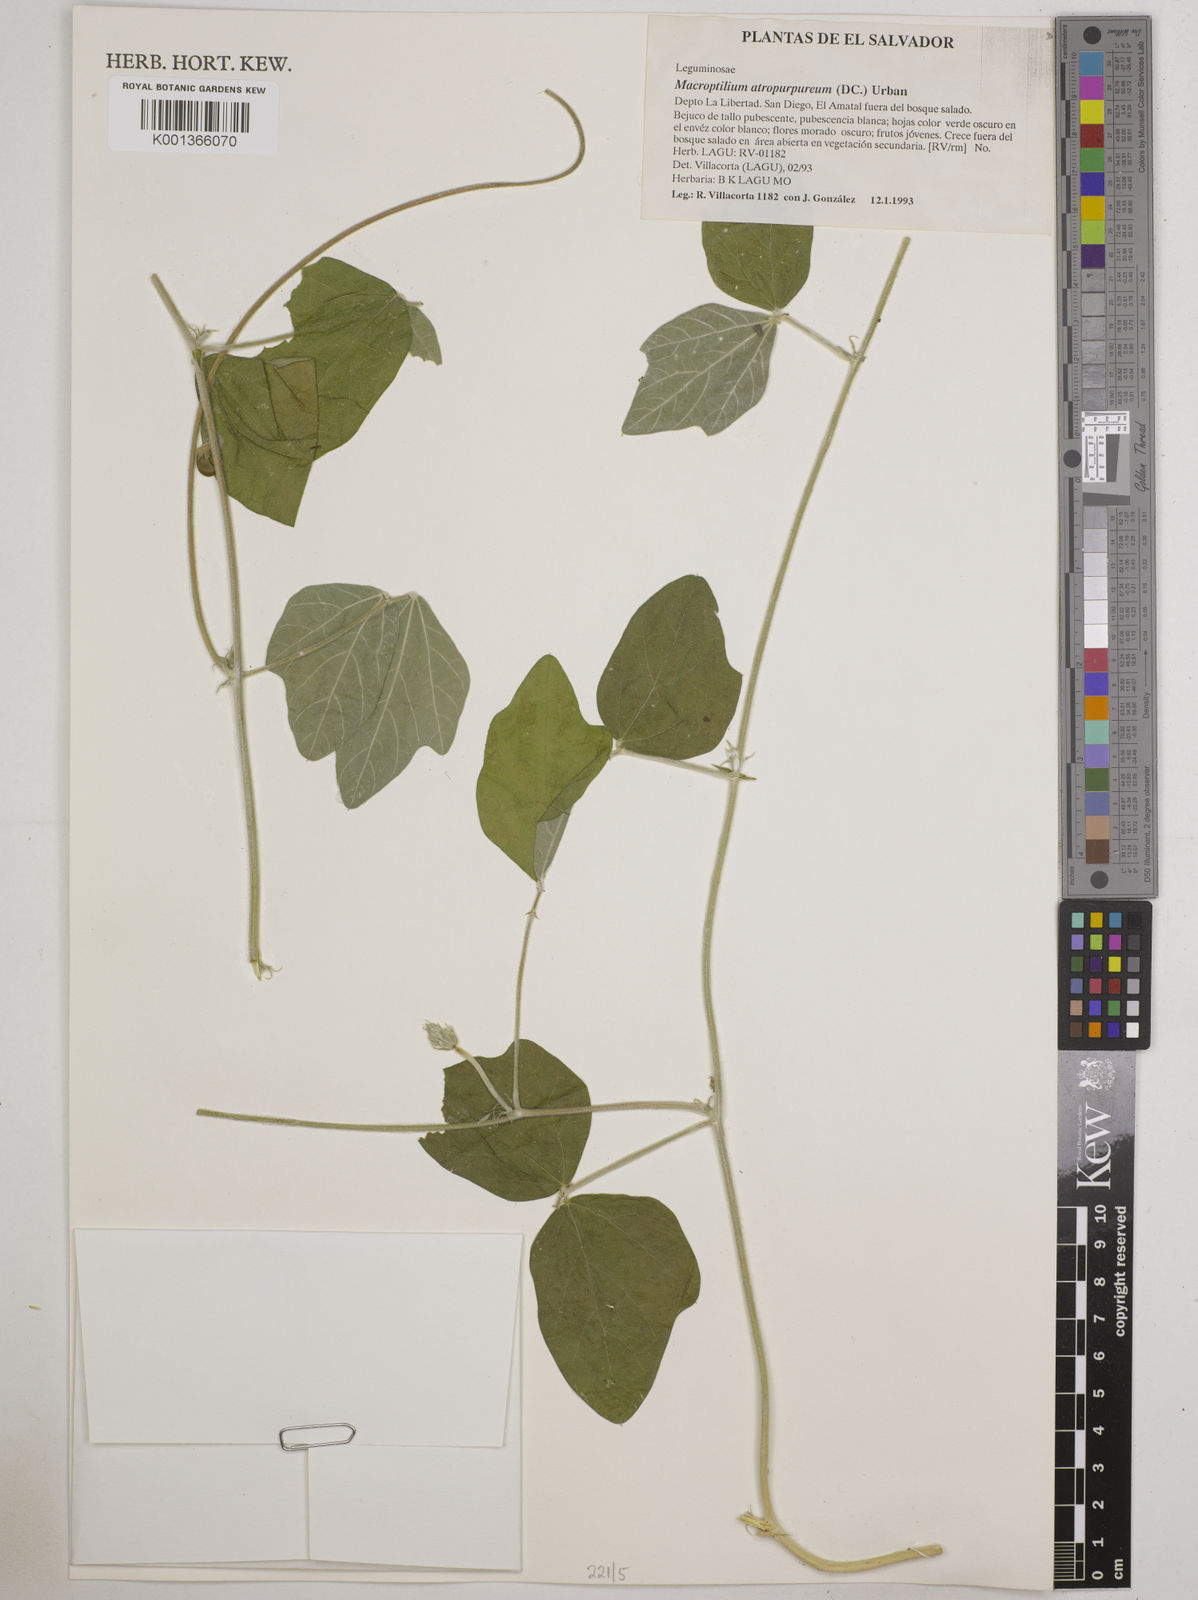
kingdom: Plantae
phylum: Tracheophyta
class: Magnoliopsida
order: Fabales
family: Fabaceae
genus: Macroptilium
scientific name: Macroptilium atropurpureum
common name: Purple bushbean
